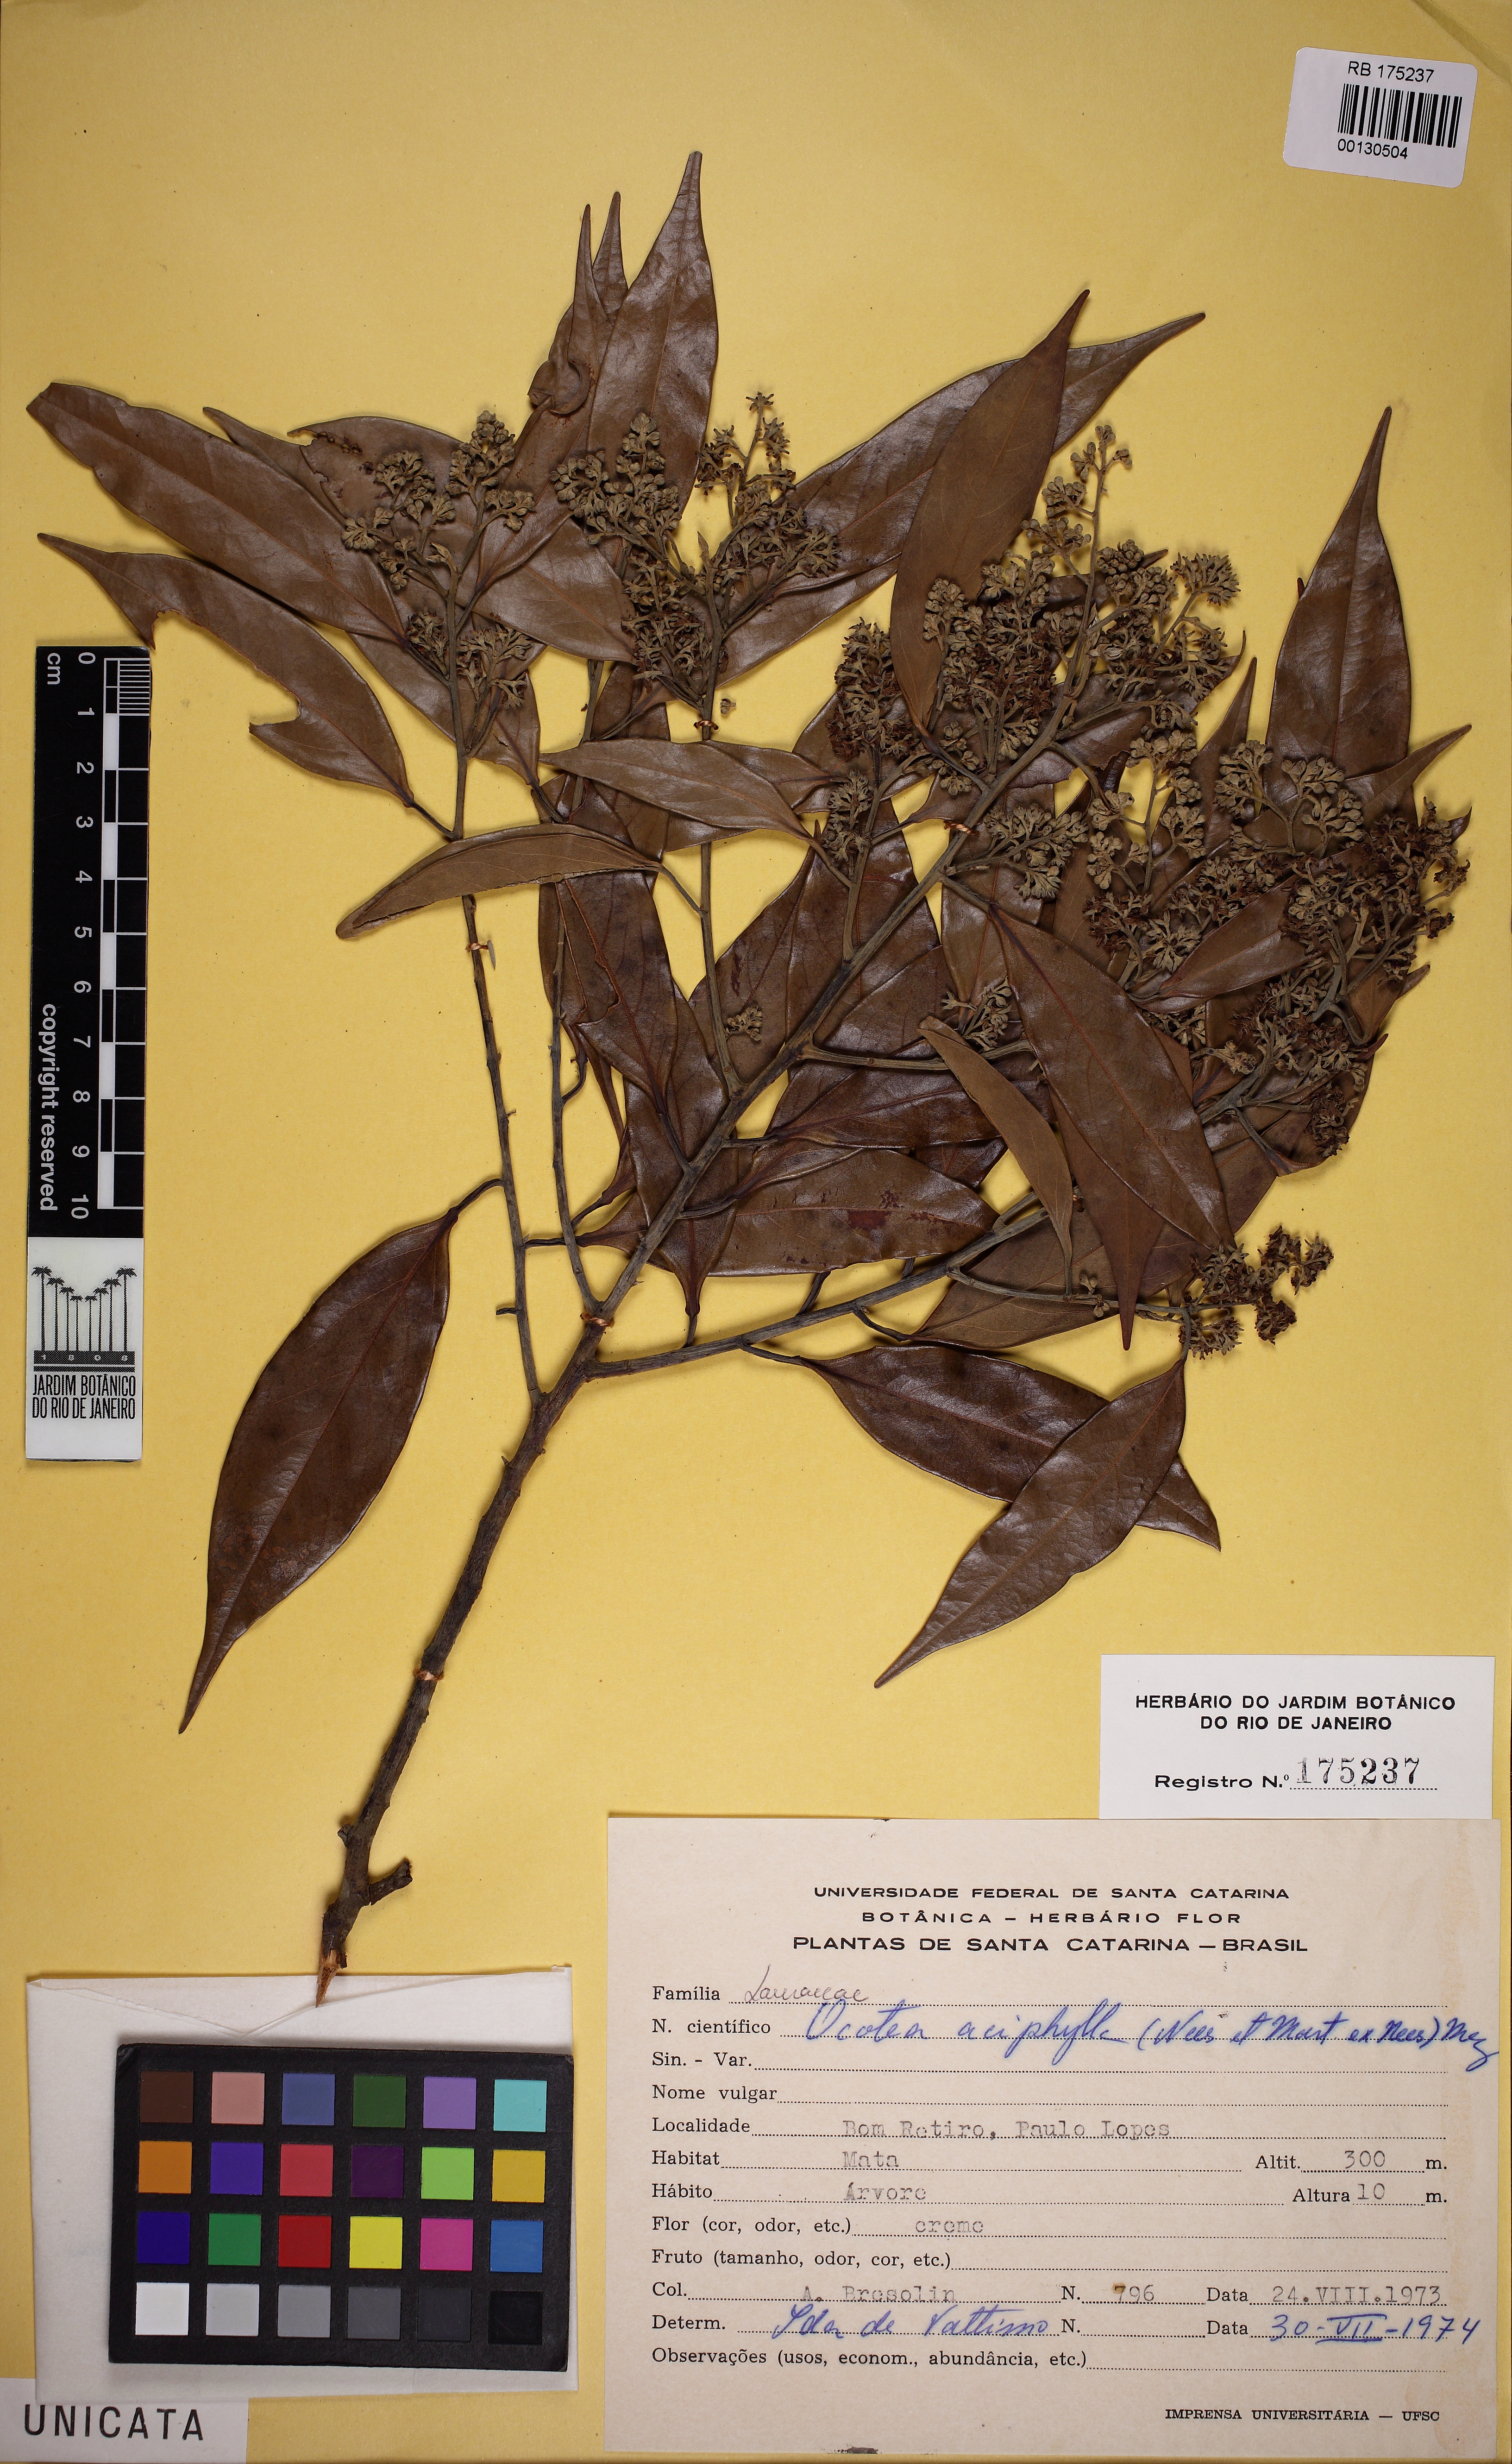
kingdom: Plantae
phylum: Tracheophyta
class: Magnoliopsida
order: Laurales
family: Lauraceae
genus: Ocotea
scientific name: Ocotea aciphylla
